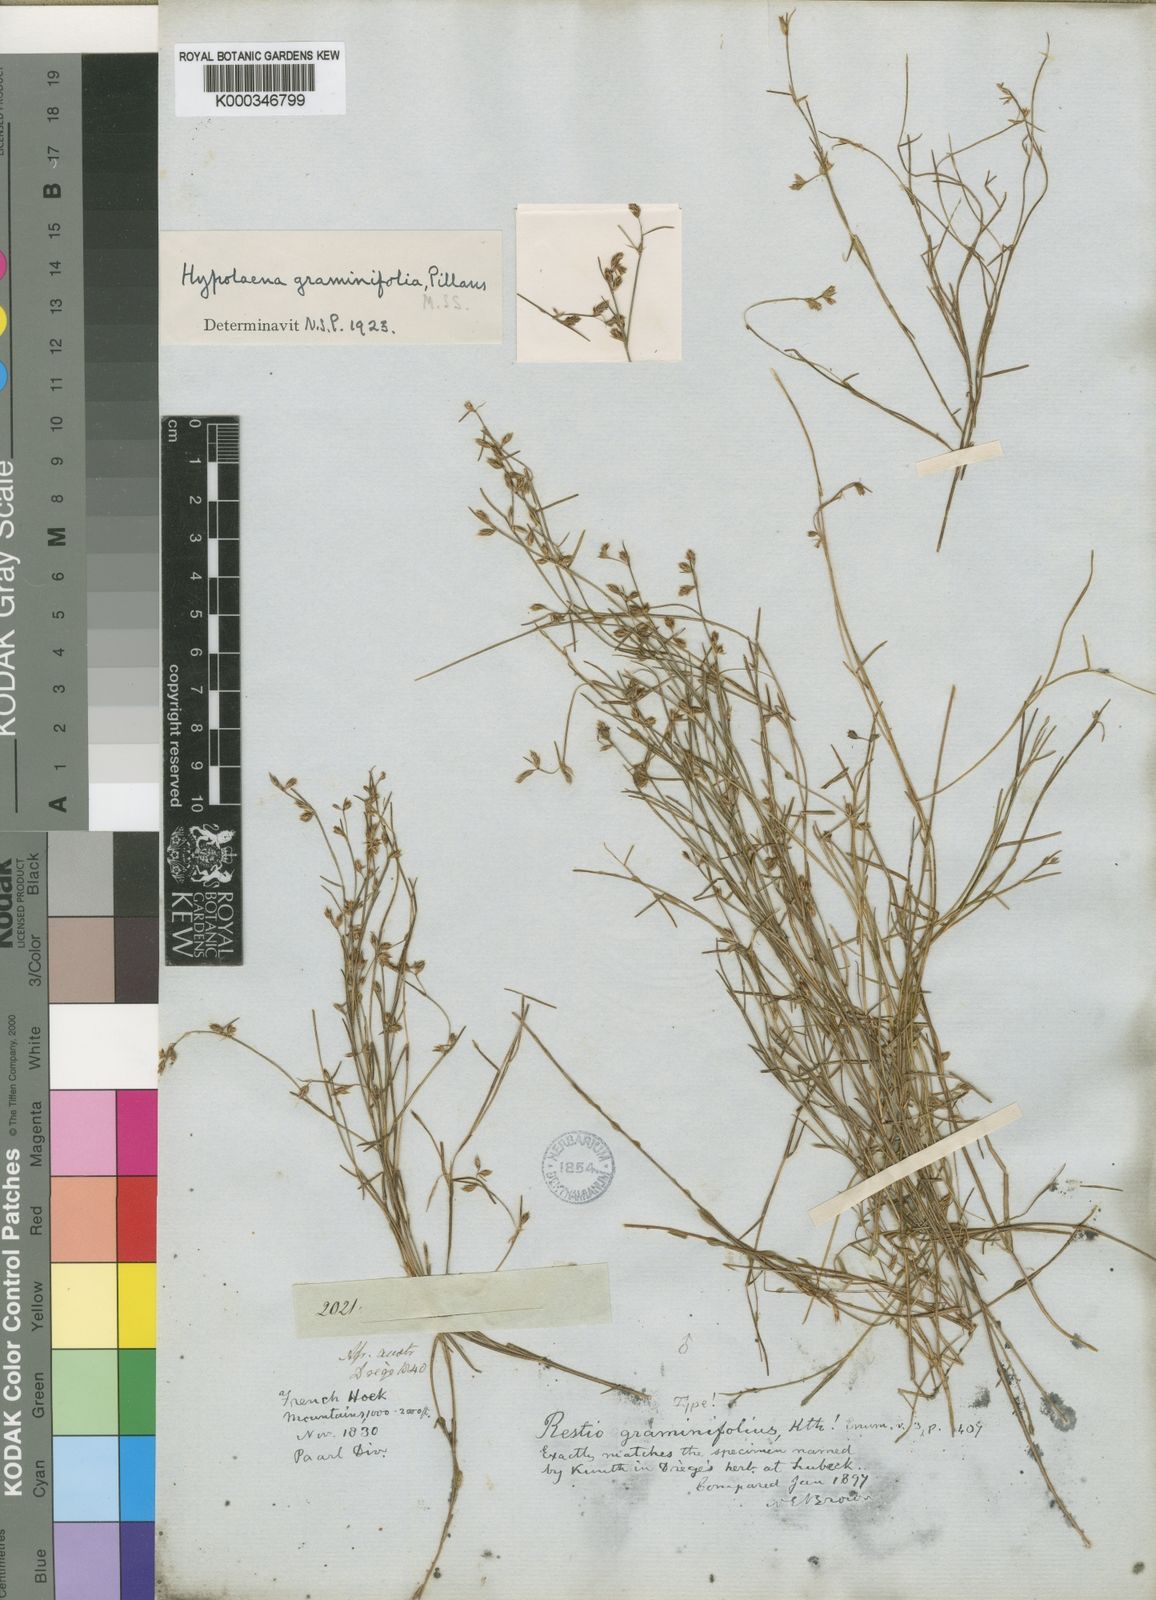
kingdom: Plantae
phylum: Tracheophyta
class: Liliopsida
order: Poales
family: Restionaceae
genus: Anthochortus
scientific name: Anthochortus graminifolius
